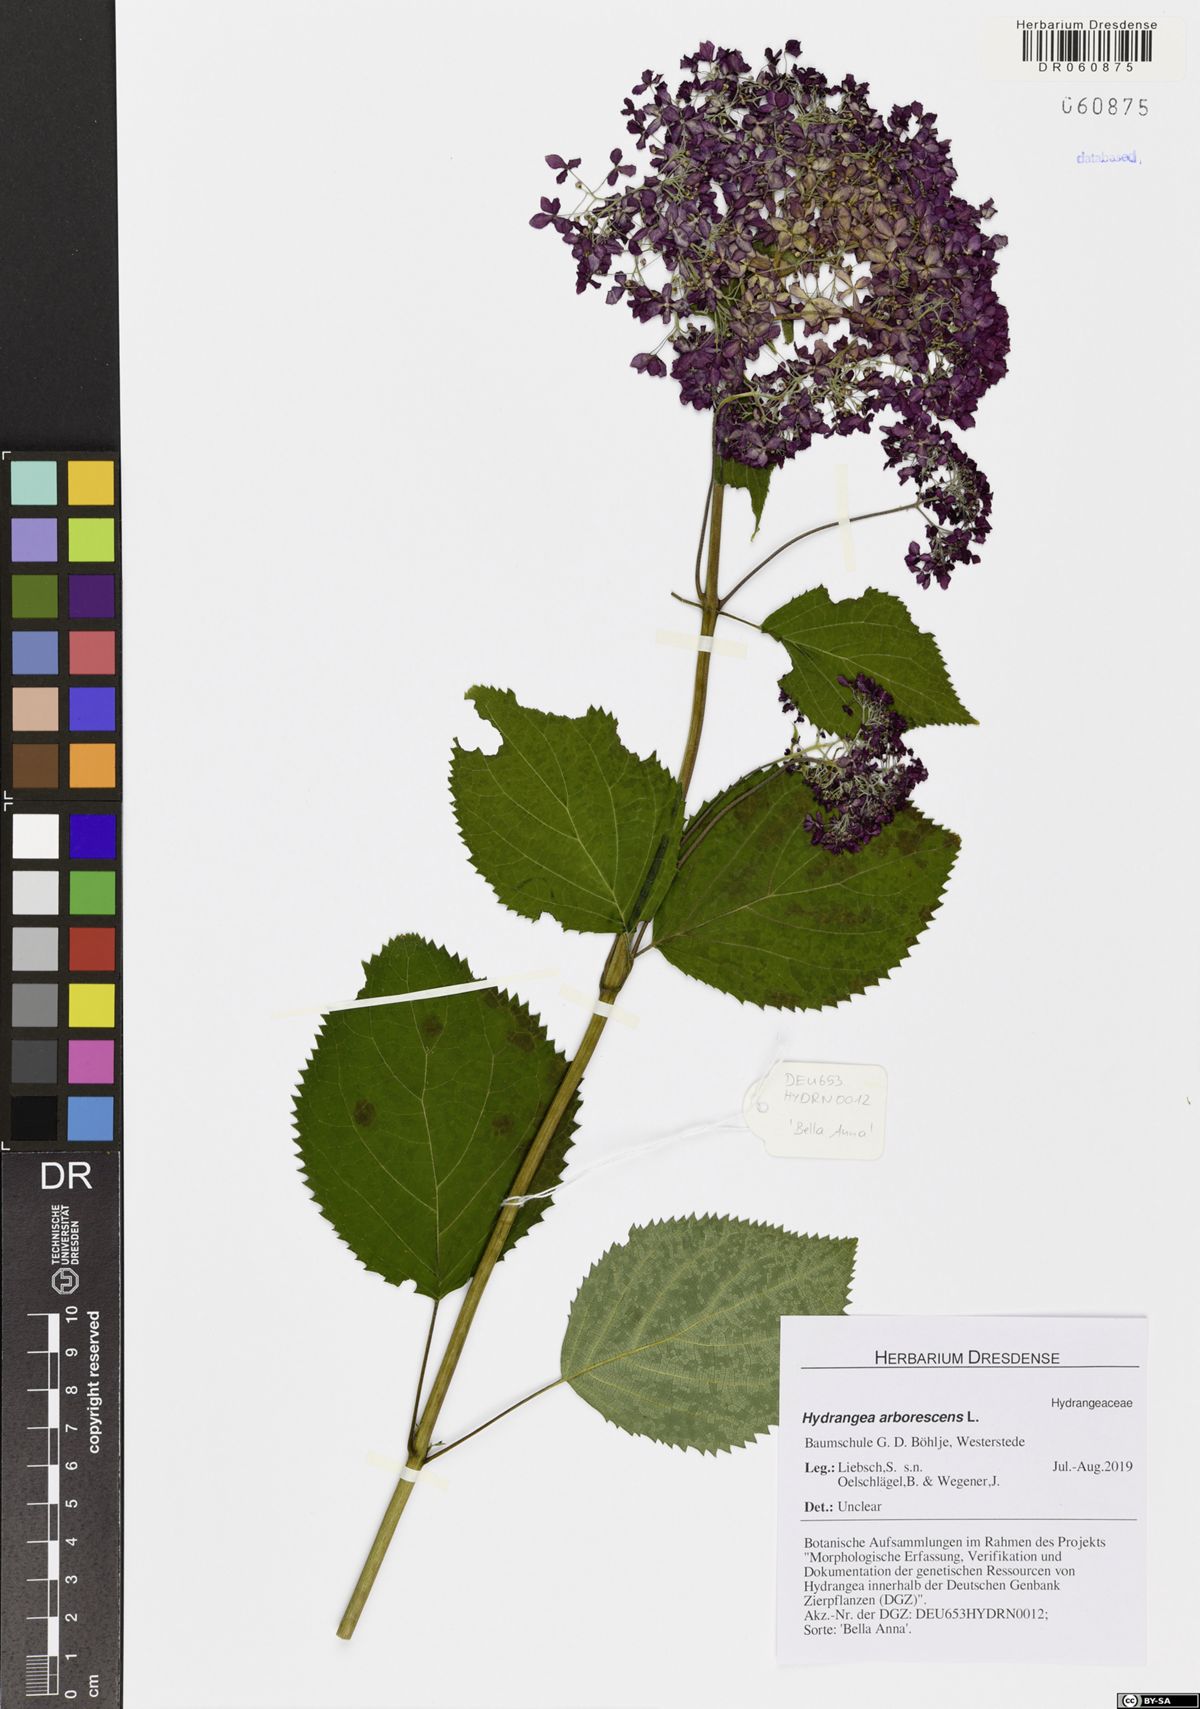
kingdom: Plantae
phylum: Tracheophyta
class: Magnoliopsida
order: Cornales
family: Hydrangeaceae
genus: Hydrangea
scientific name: Hydrangea arborescens
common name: Sevenbark
